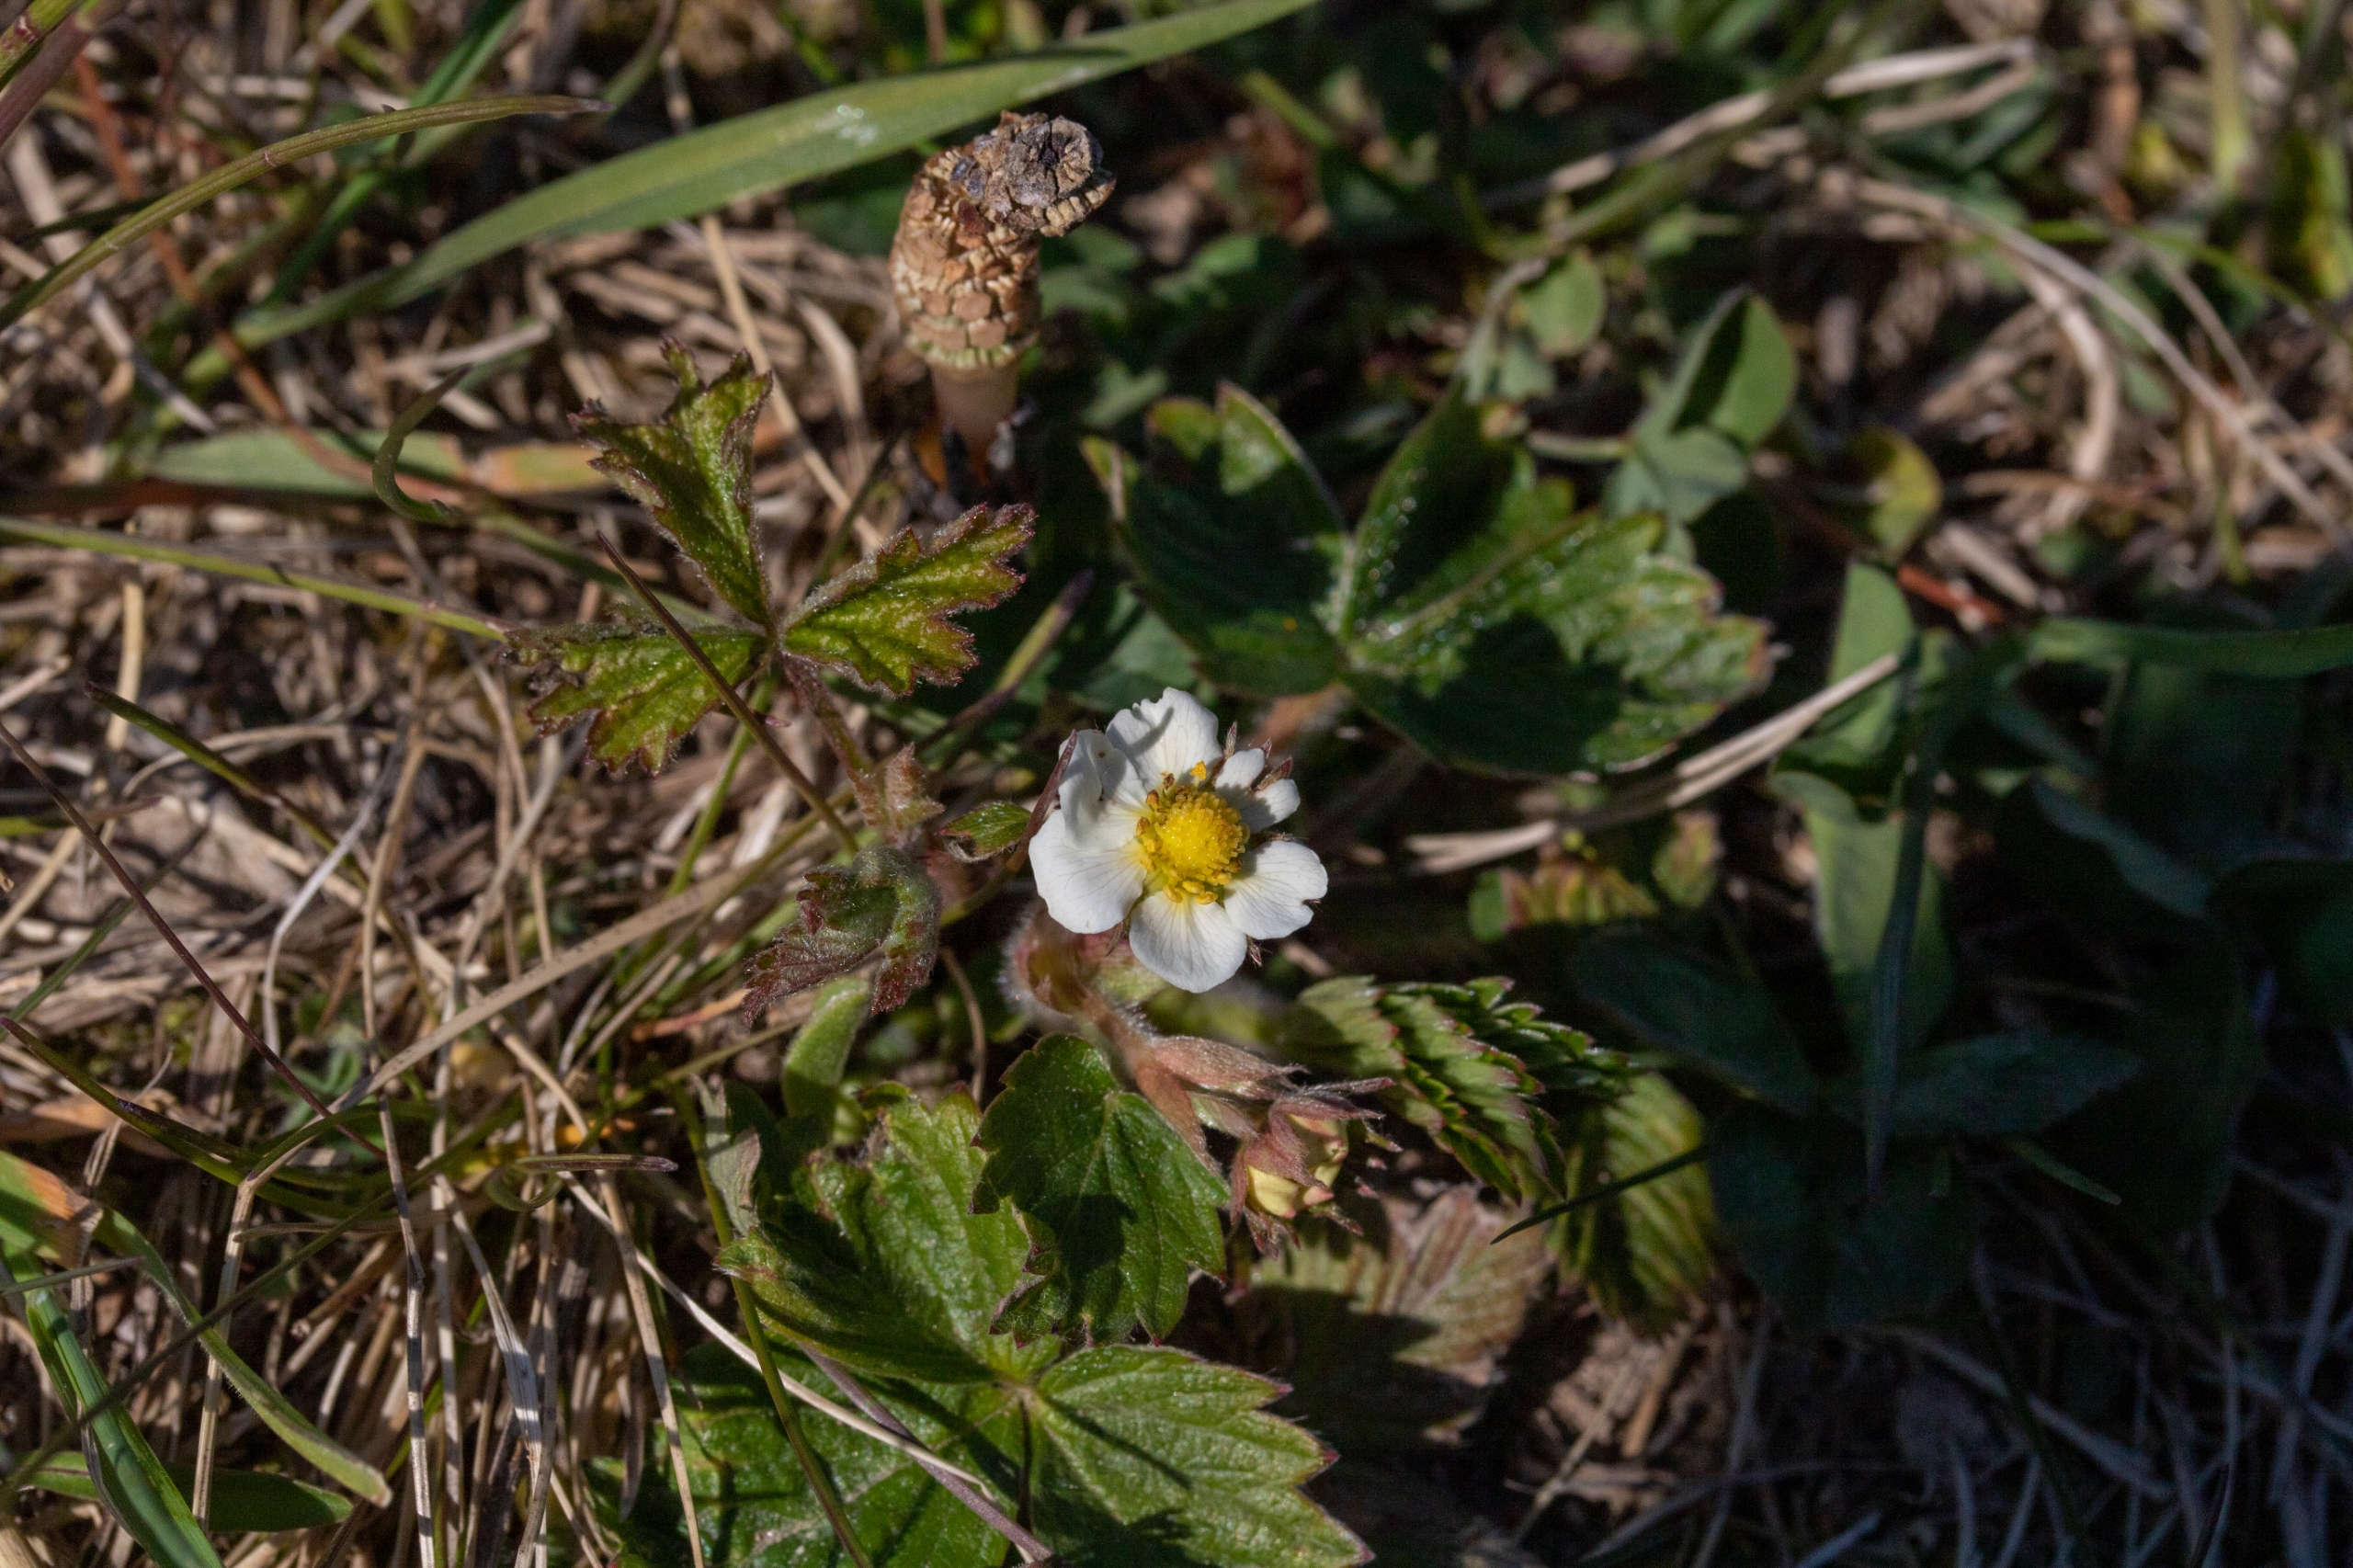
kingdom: Plantae
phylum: Tracheophyta
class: Magnoliopsida
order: Rosales
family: Rosaceae
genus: Fragaria
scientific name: Fragaria vesca
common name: Skov-jordbær
